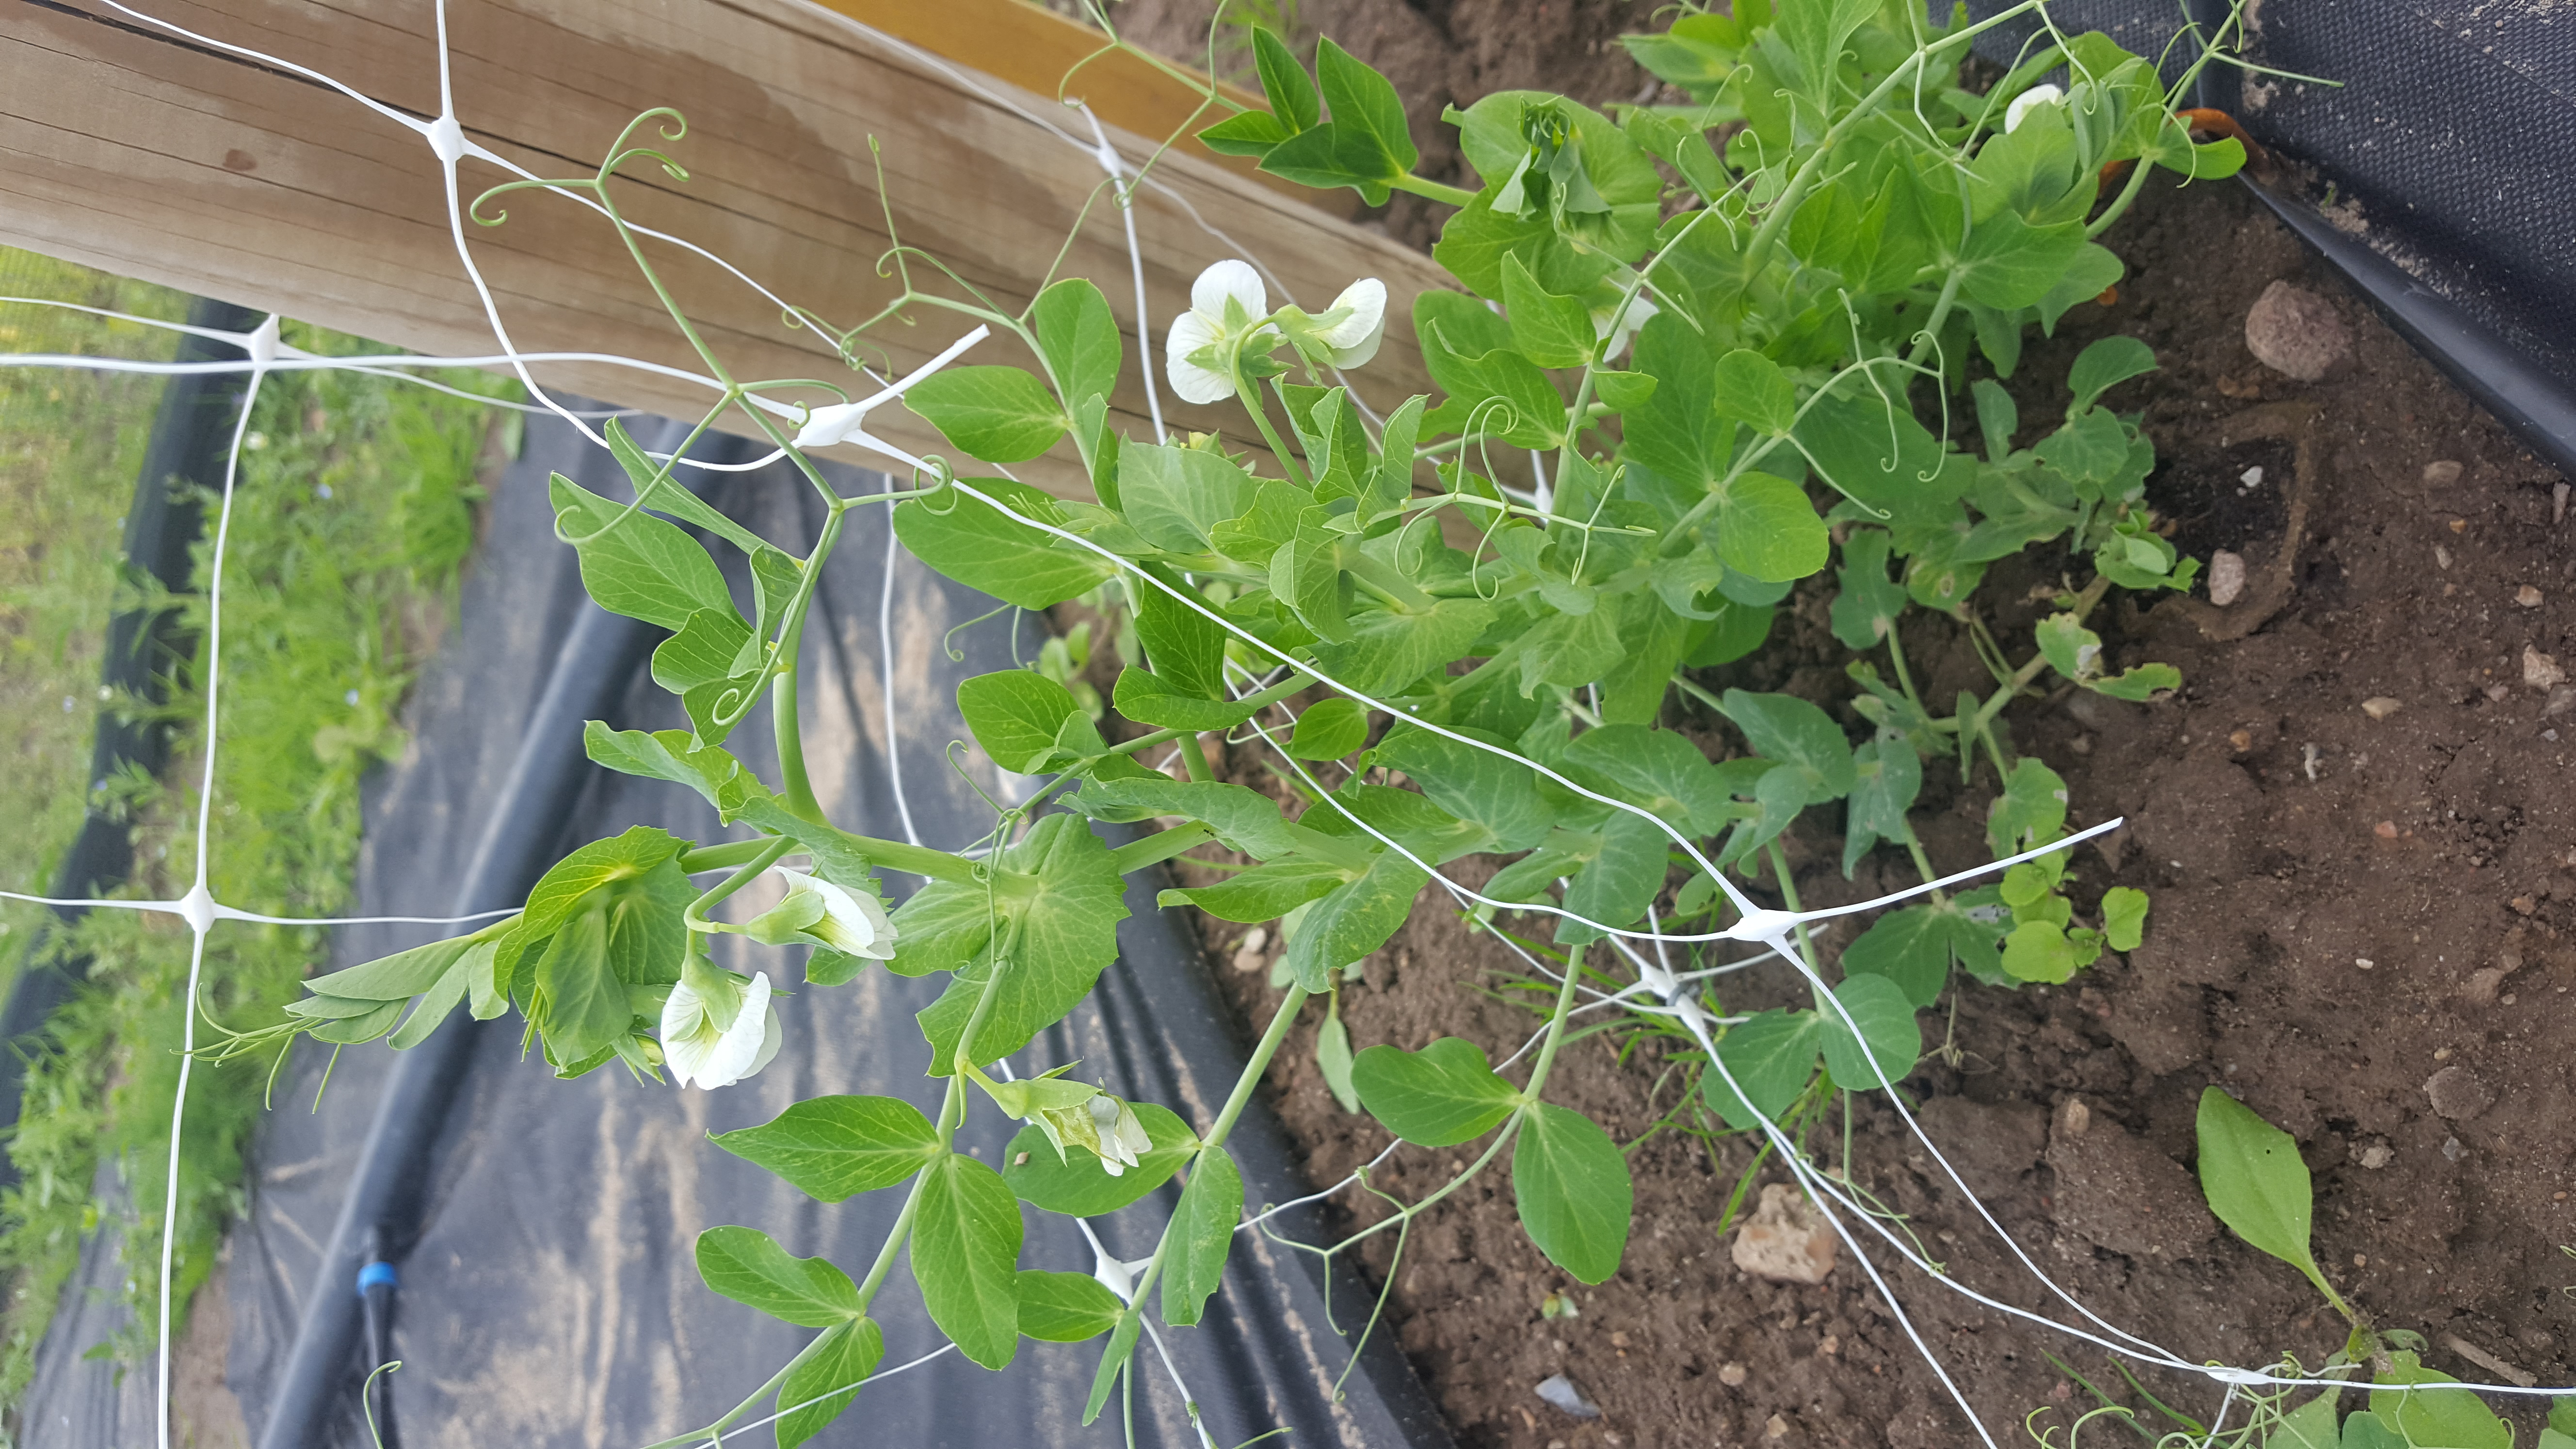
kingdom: Plantae
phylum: Tracheophyta
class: Magnoliopsida
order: Fabales
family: Fabaceae
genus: Lathyrus
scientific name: Lathyrus oleraceus
